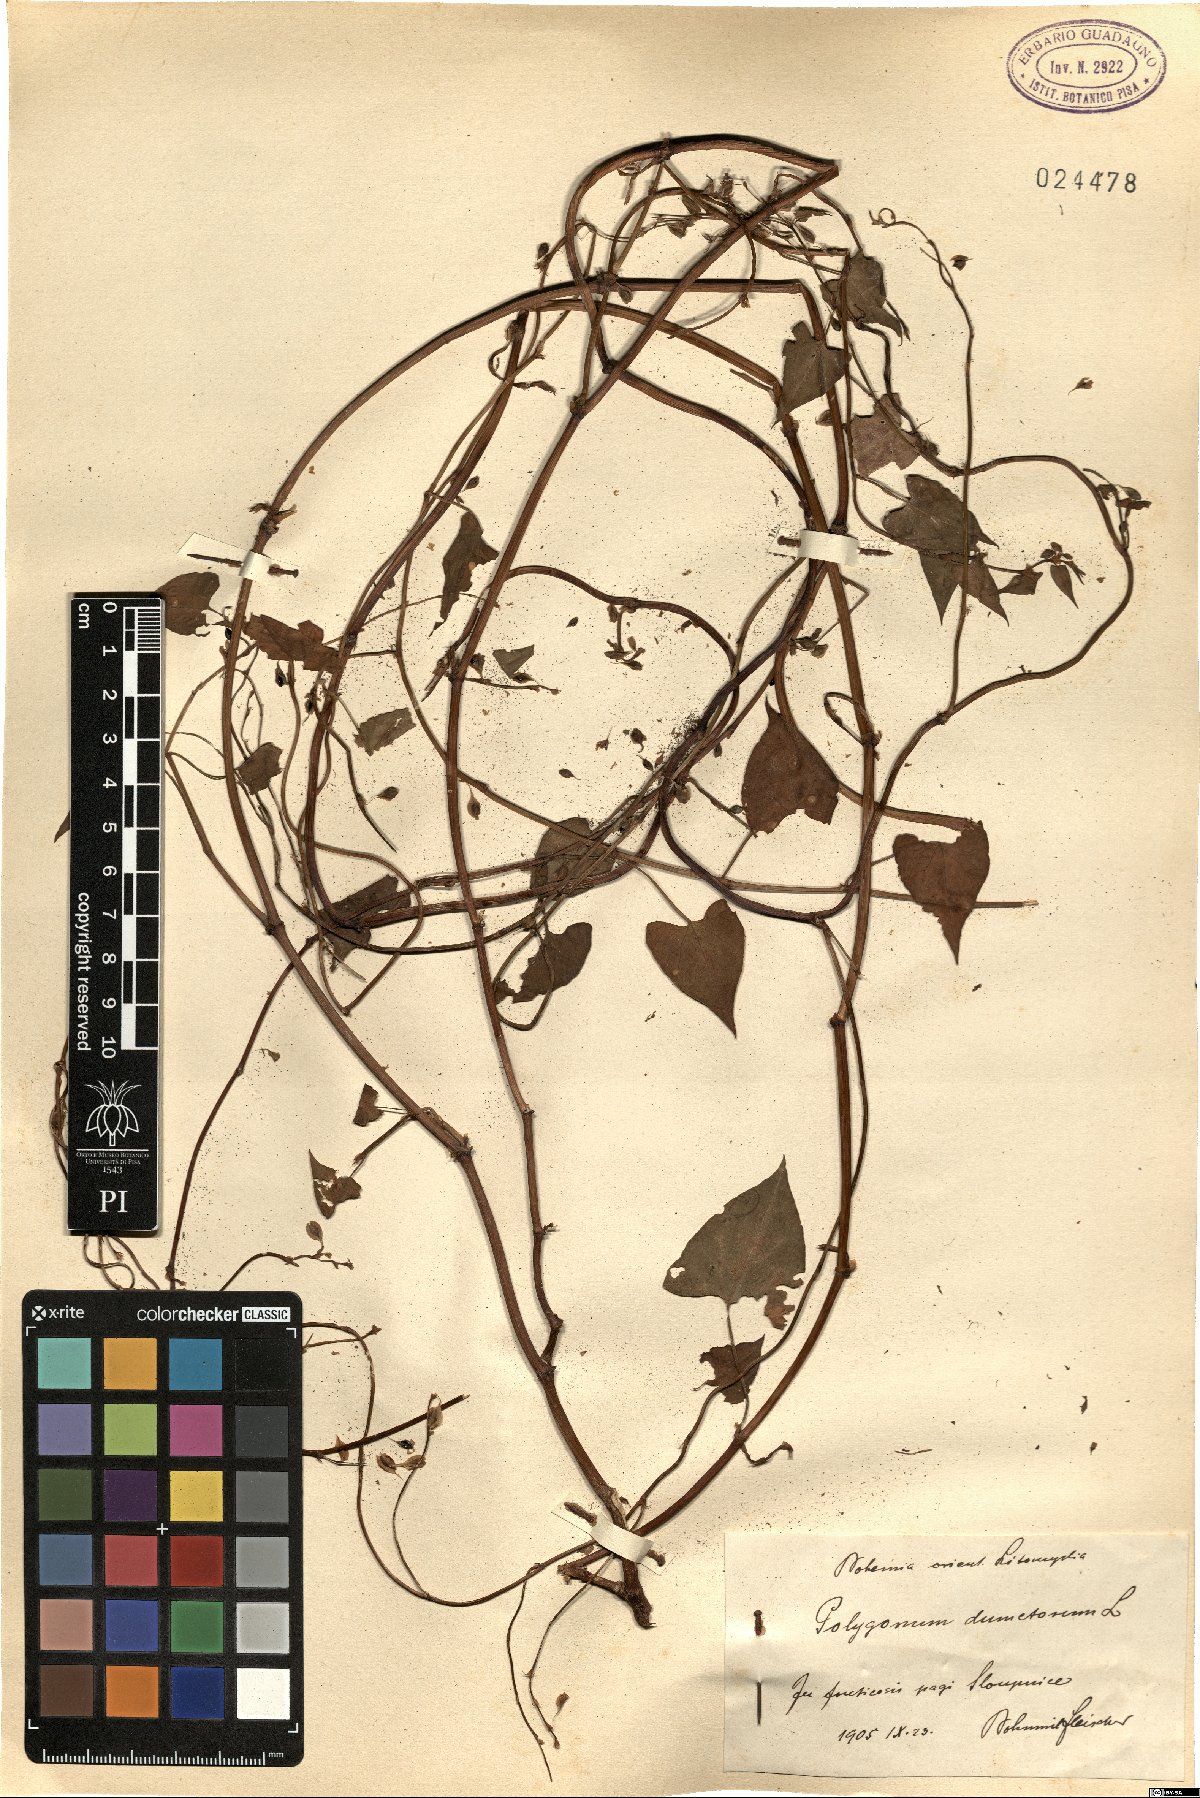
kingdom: Plantae
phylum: Tracheophyta
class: Magnoliopsida
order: Caryophyllales
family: Polygonaceae
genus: Fallopia
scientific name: Fallopia dumetorum
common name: Copse-bindweed
